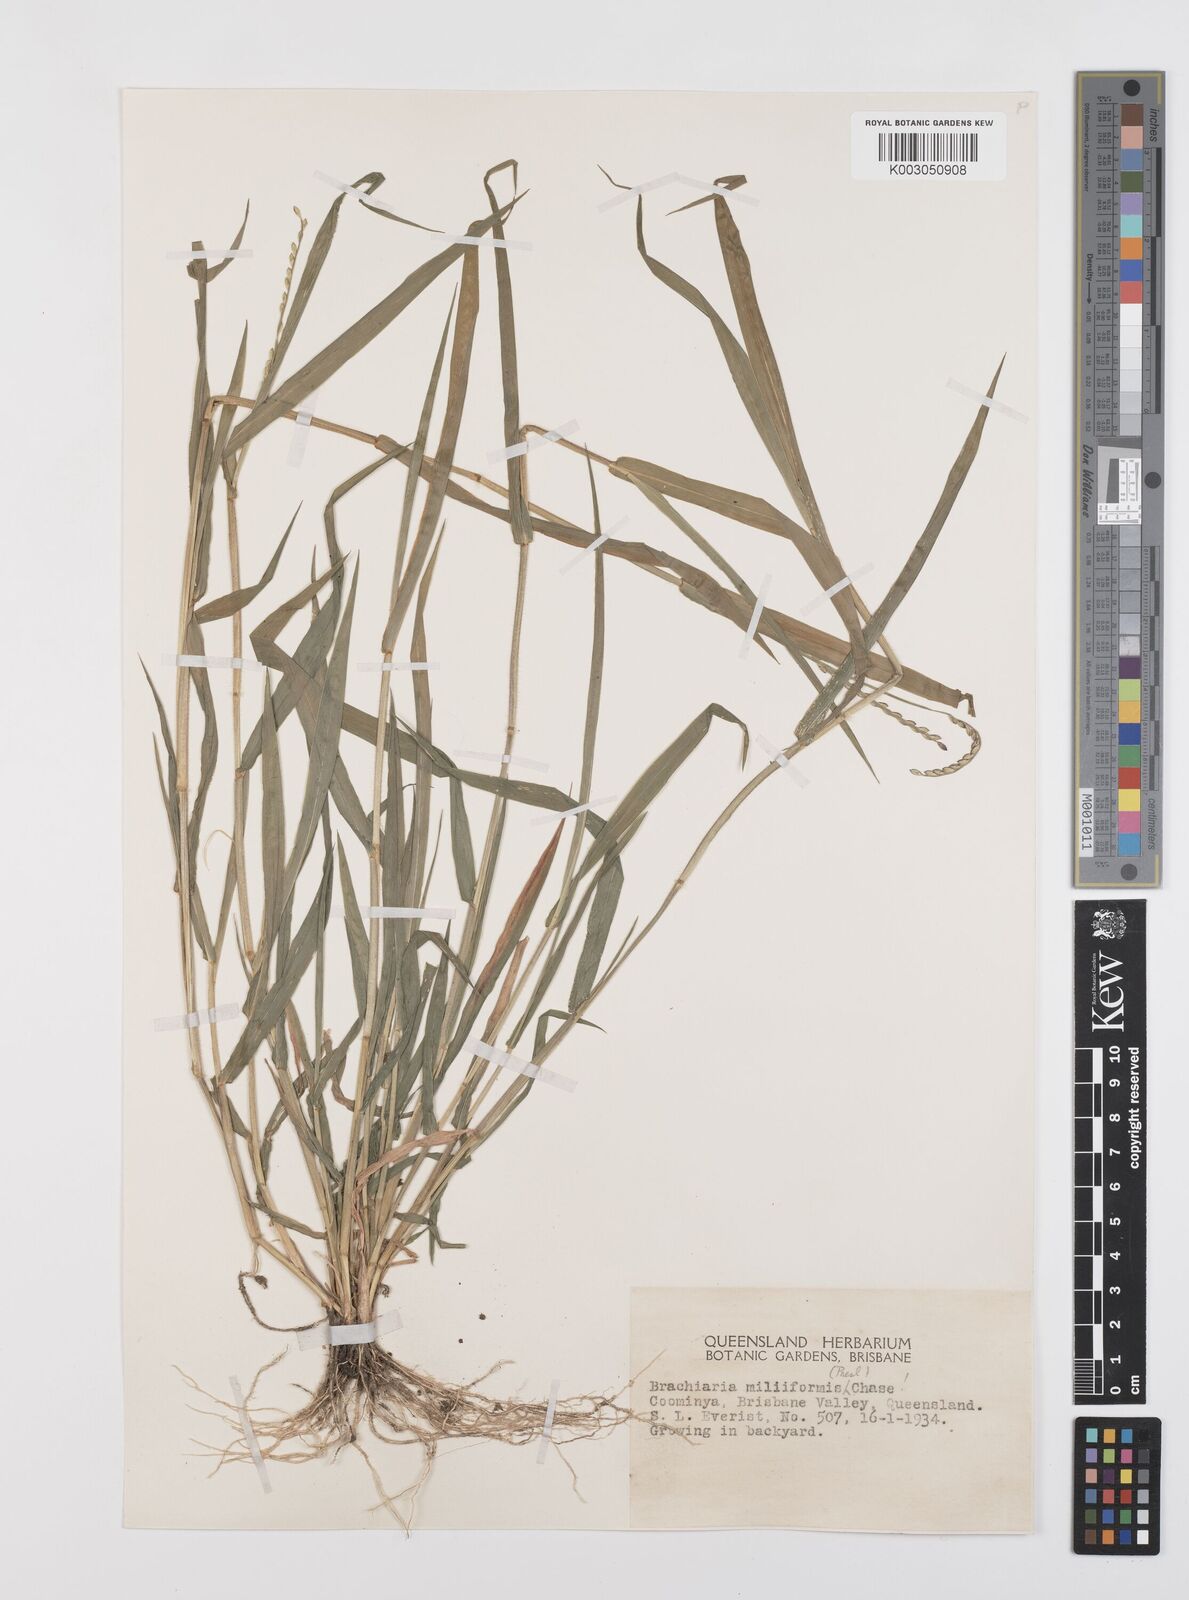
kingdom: Plantae
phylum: Tracheophyta
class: Liliopsida
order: Poales
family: Poaceae
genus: Urochloa
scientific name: Urochloa subquadripara
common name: Armgrass millet
